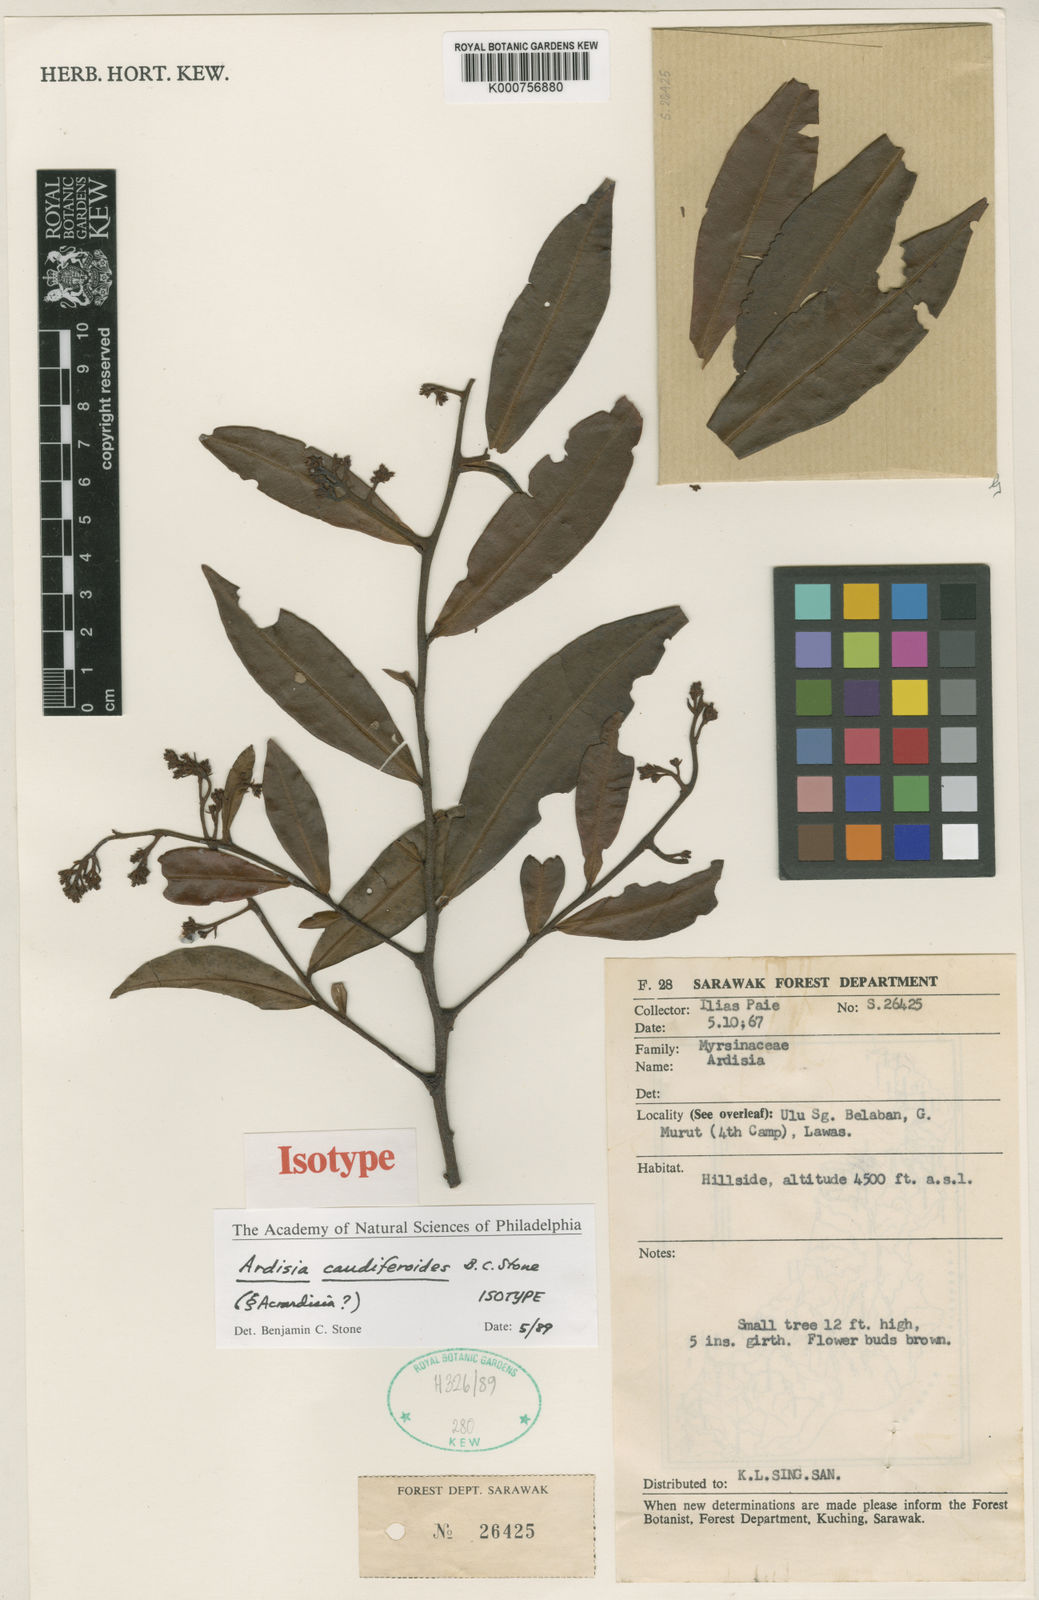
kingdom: Plantae
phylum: Tracheophyta
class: Magnoliopsida
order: Ericales
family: Primulaceae
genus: Ardisia
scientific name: Ardisia
